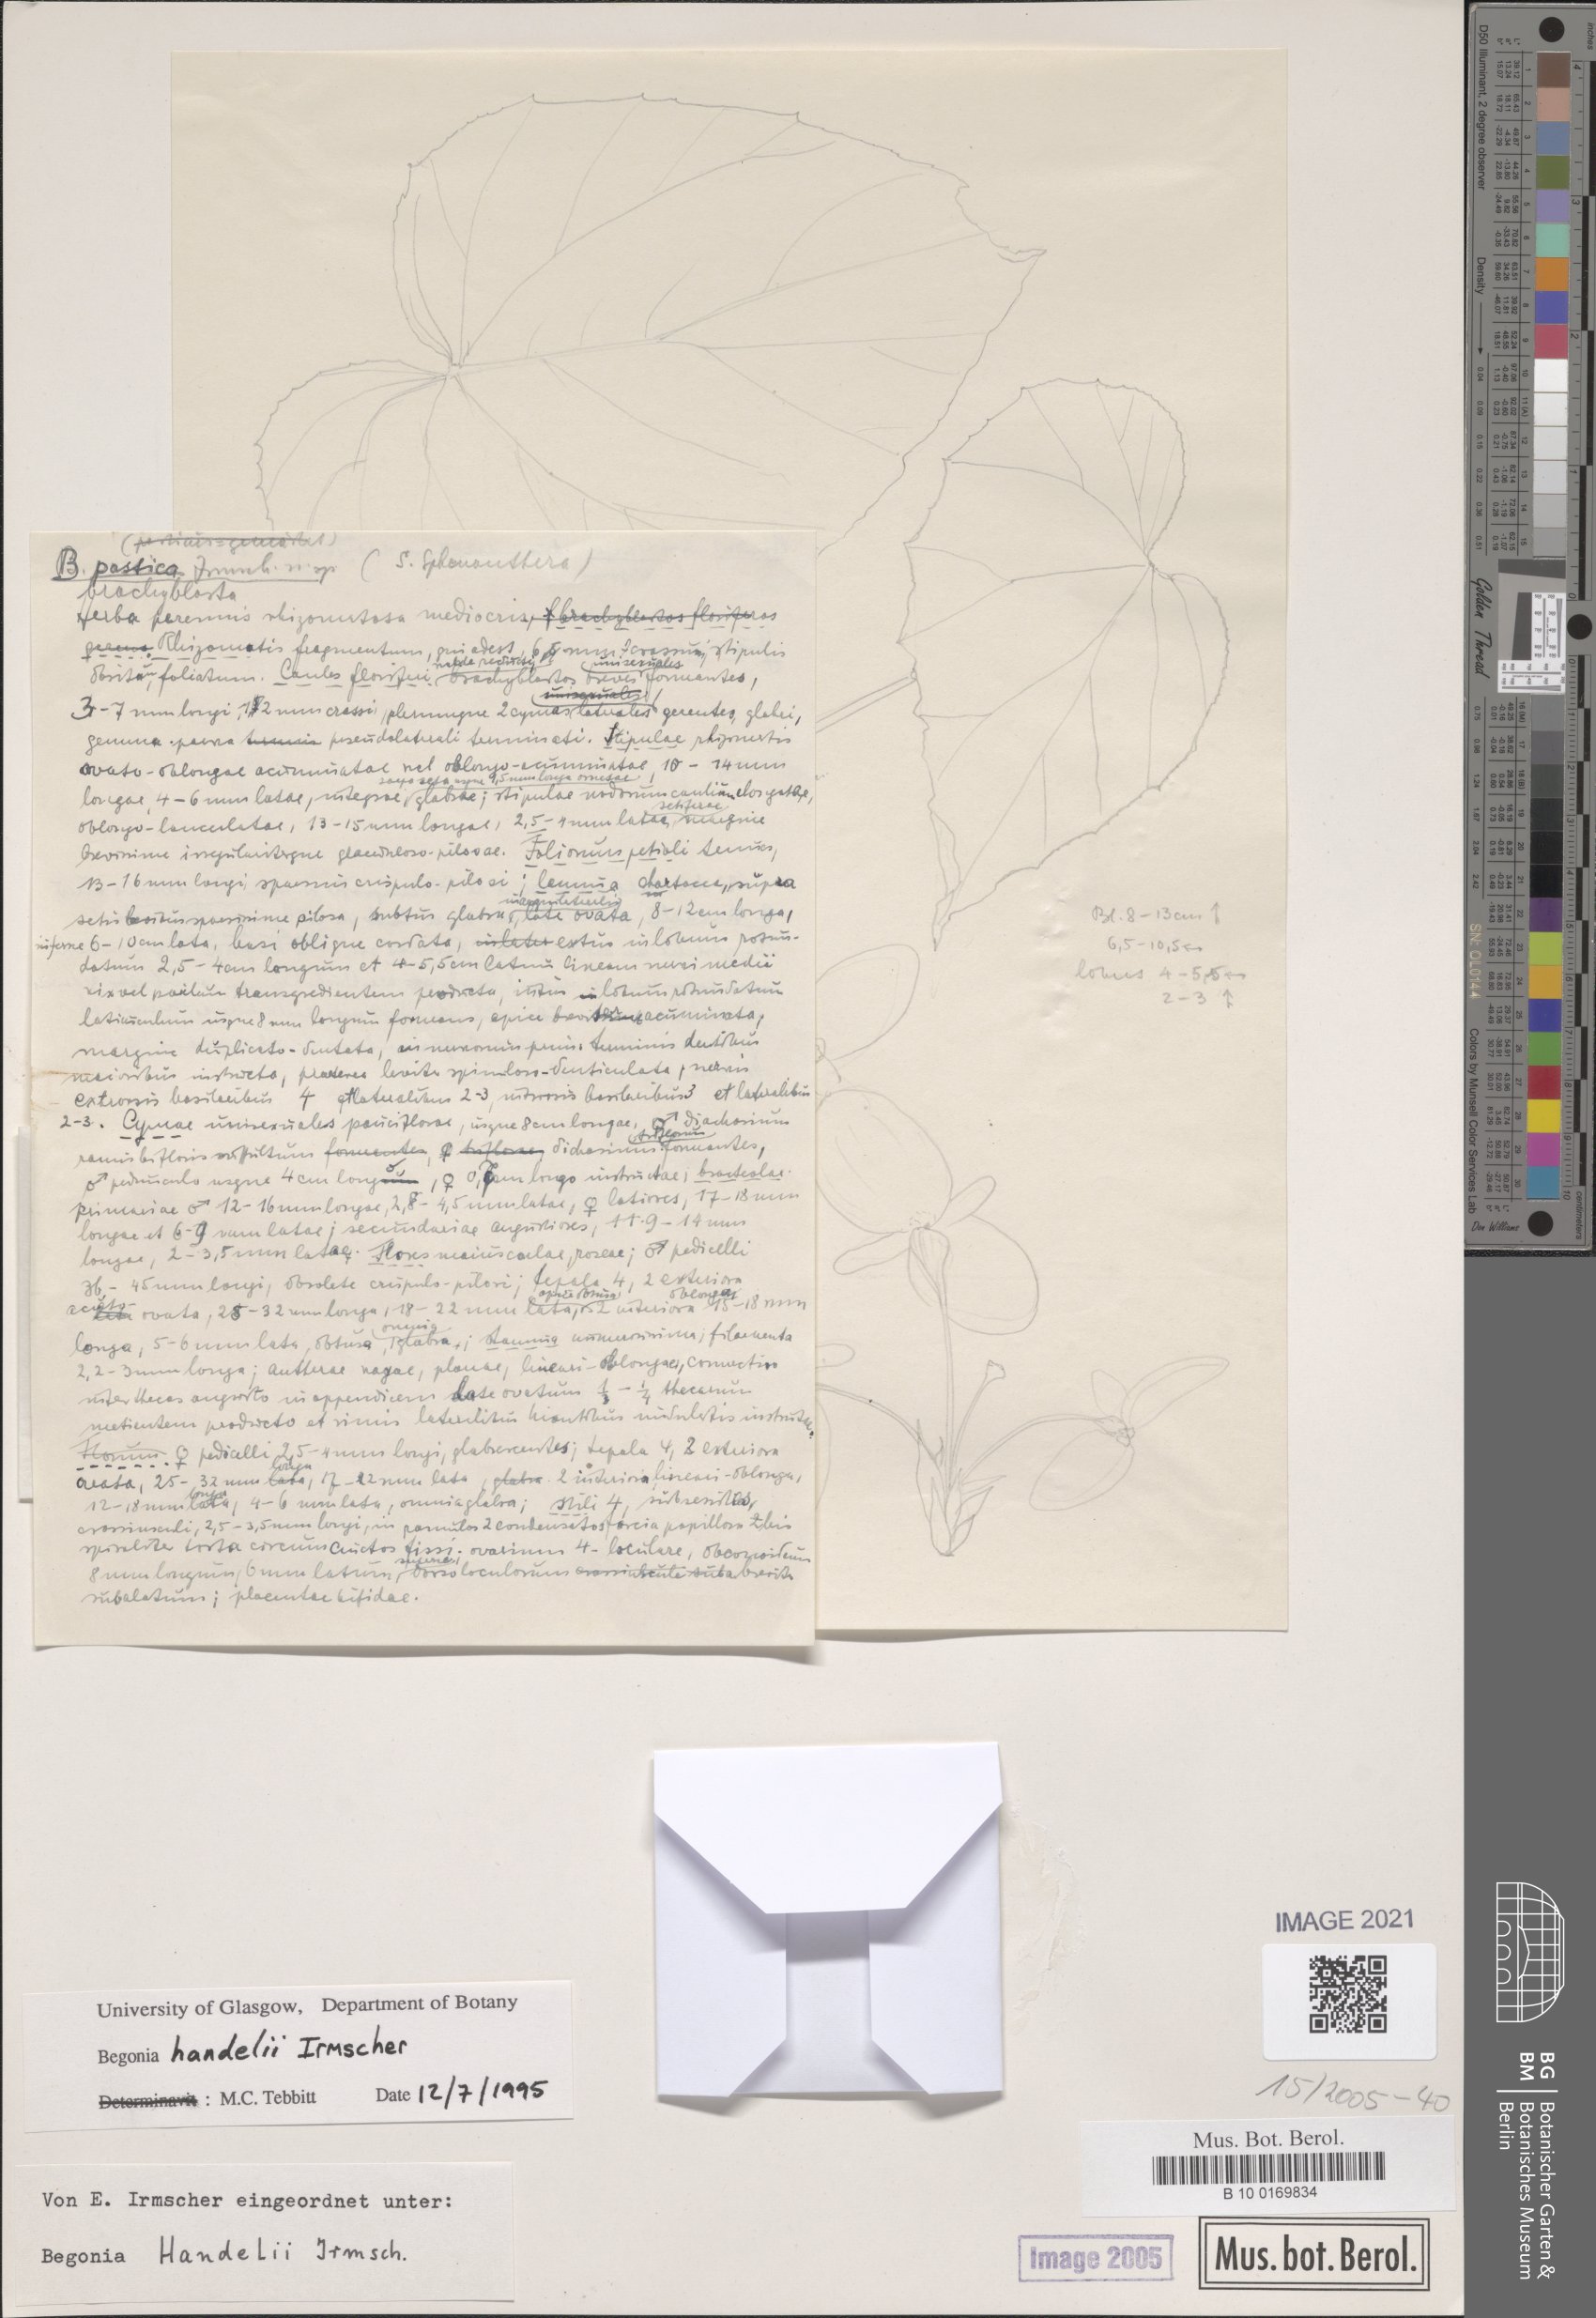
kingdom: Plantae
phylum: Tracheophyta
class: Magnoliopsida
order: Cucurbitales
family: Begoniaceae
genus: Begonia
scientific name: Begonia handelii
